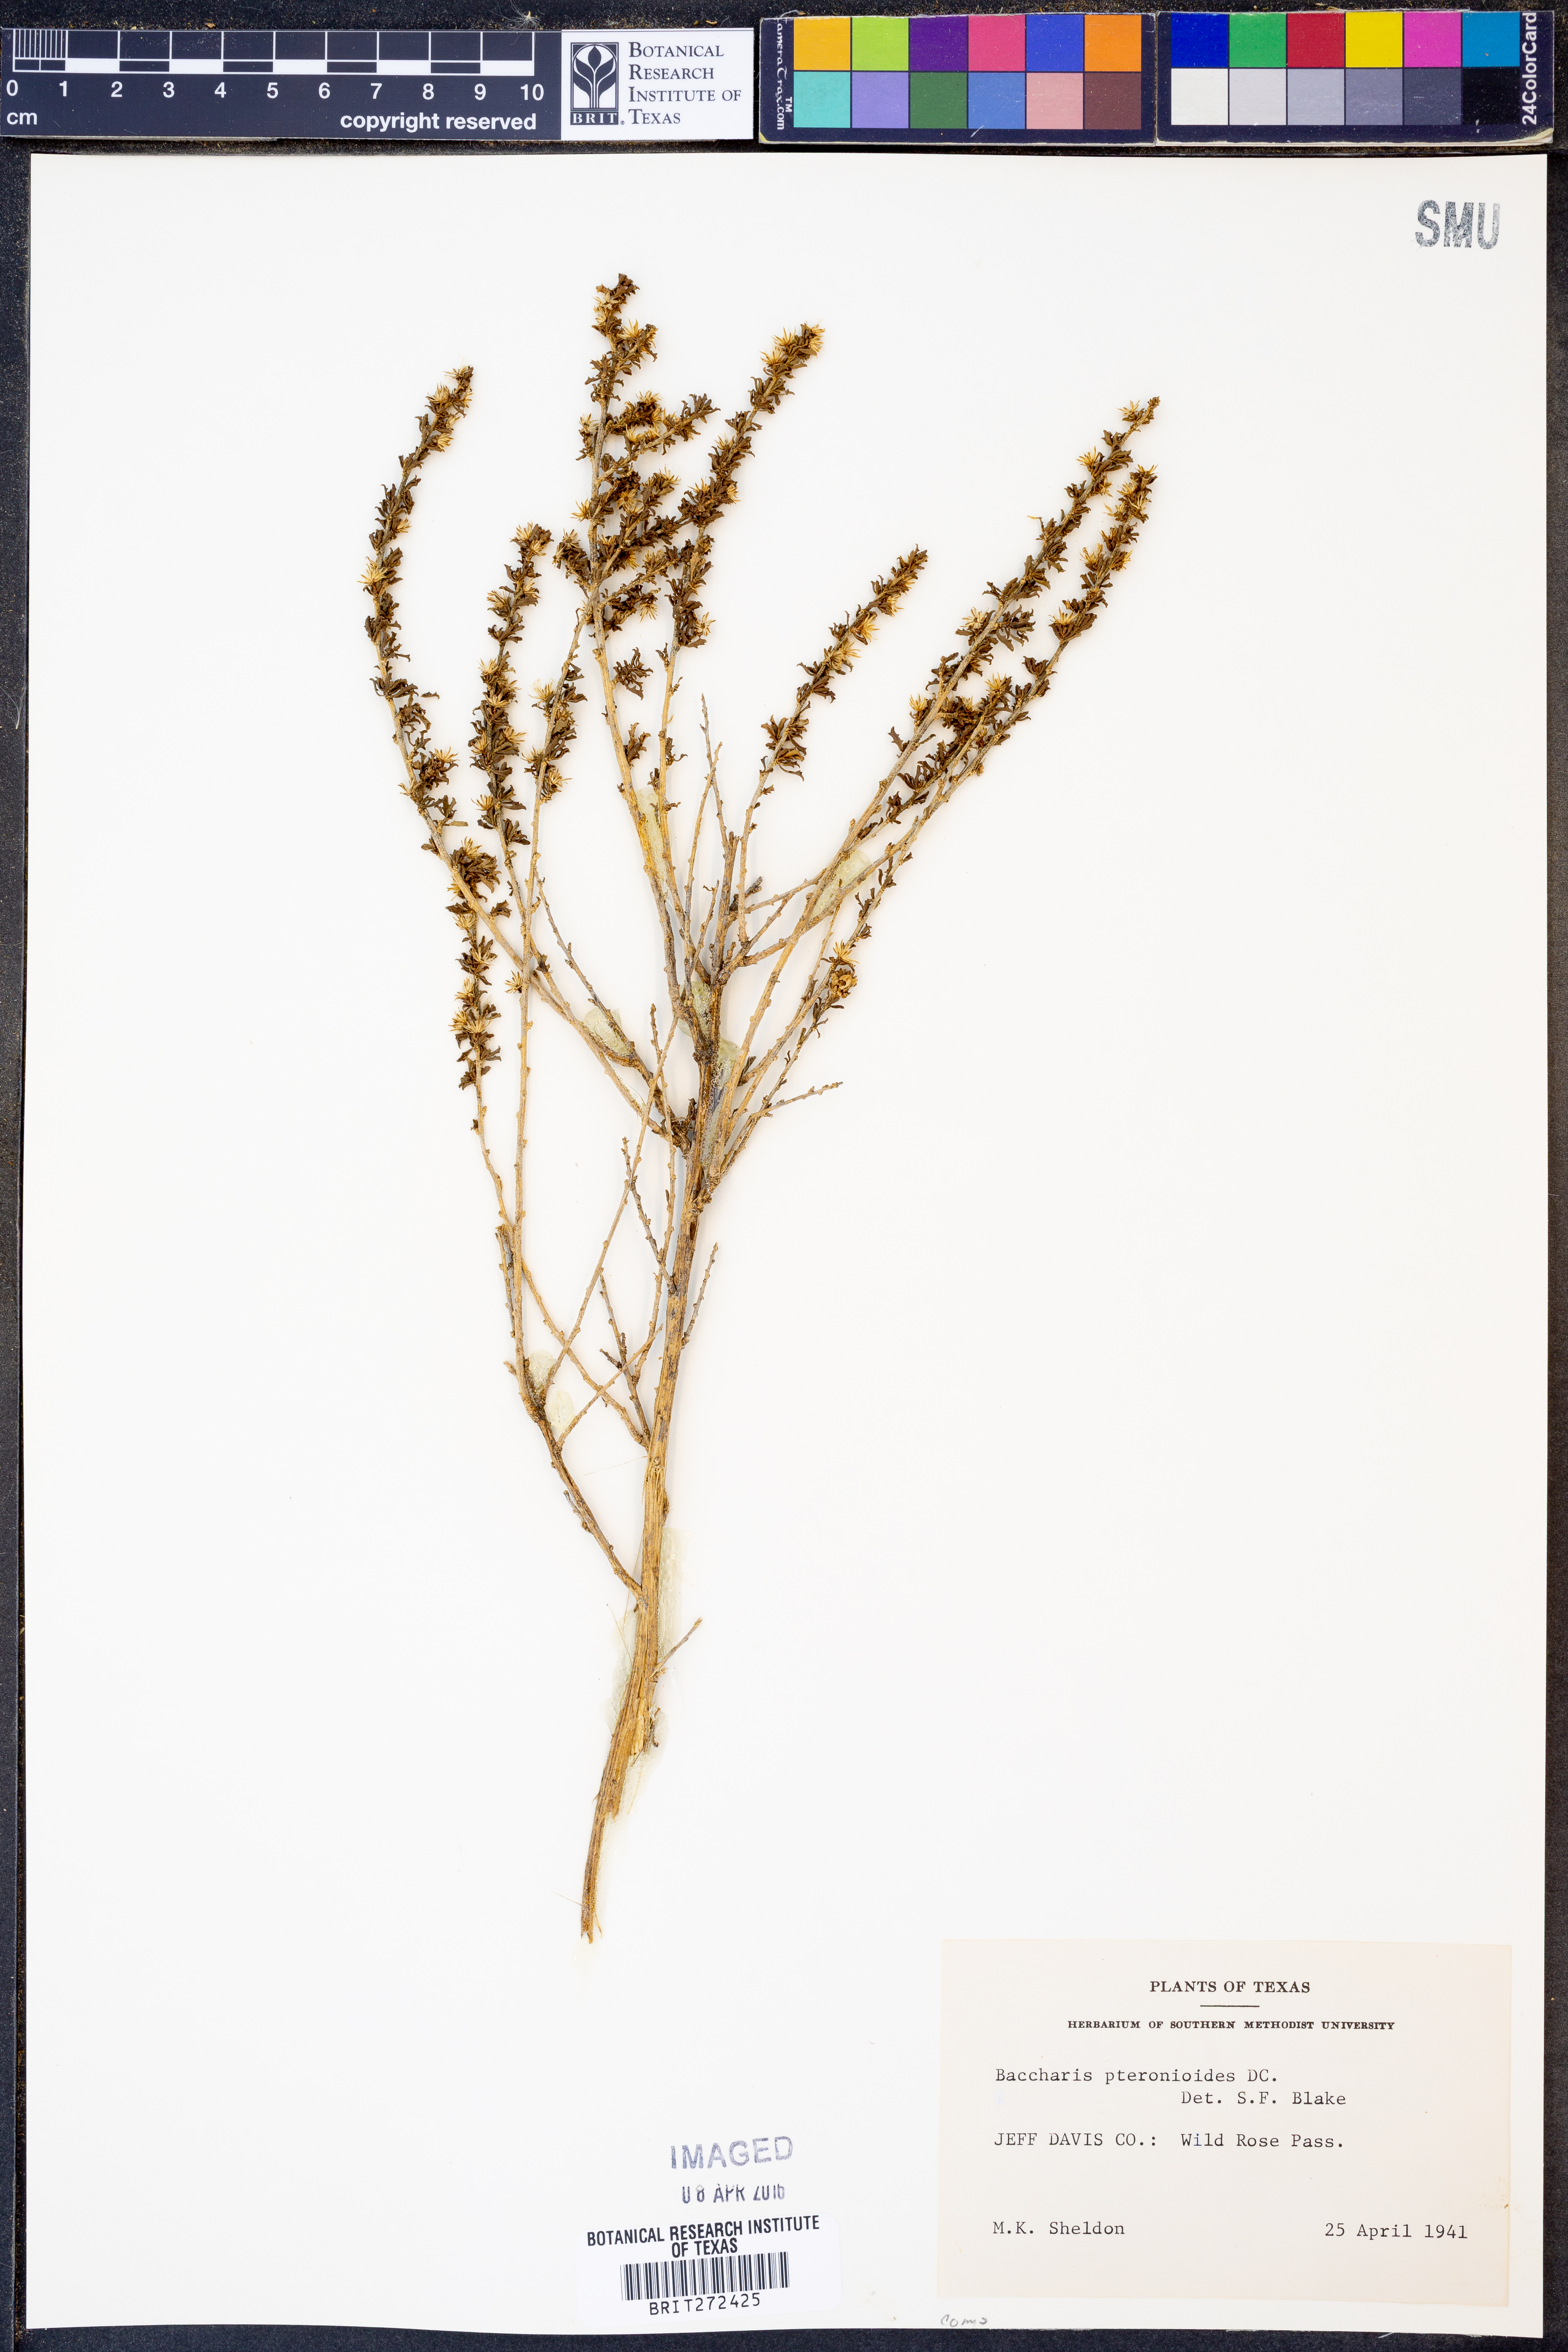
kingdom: Plantae
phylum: Tracheophyta
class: Magnoliopsida
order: Asterales
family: Asteraceae
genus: Baccharis
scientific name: Baccharis pteronioides
